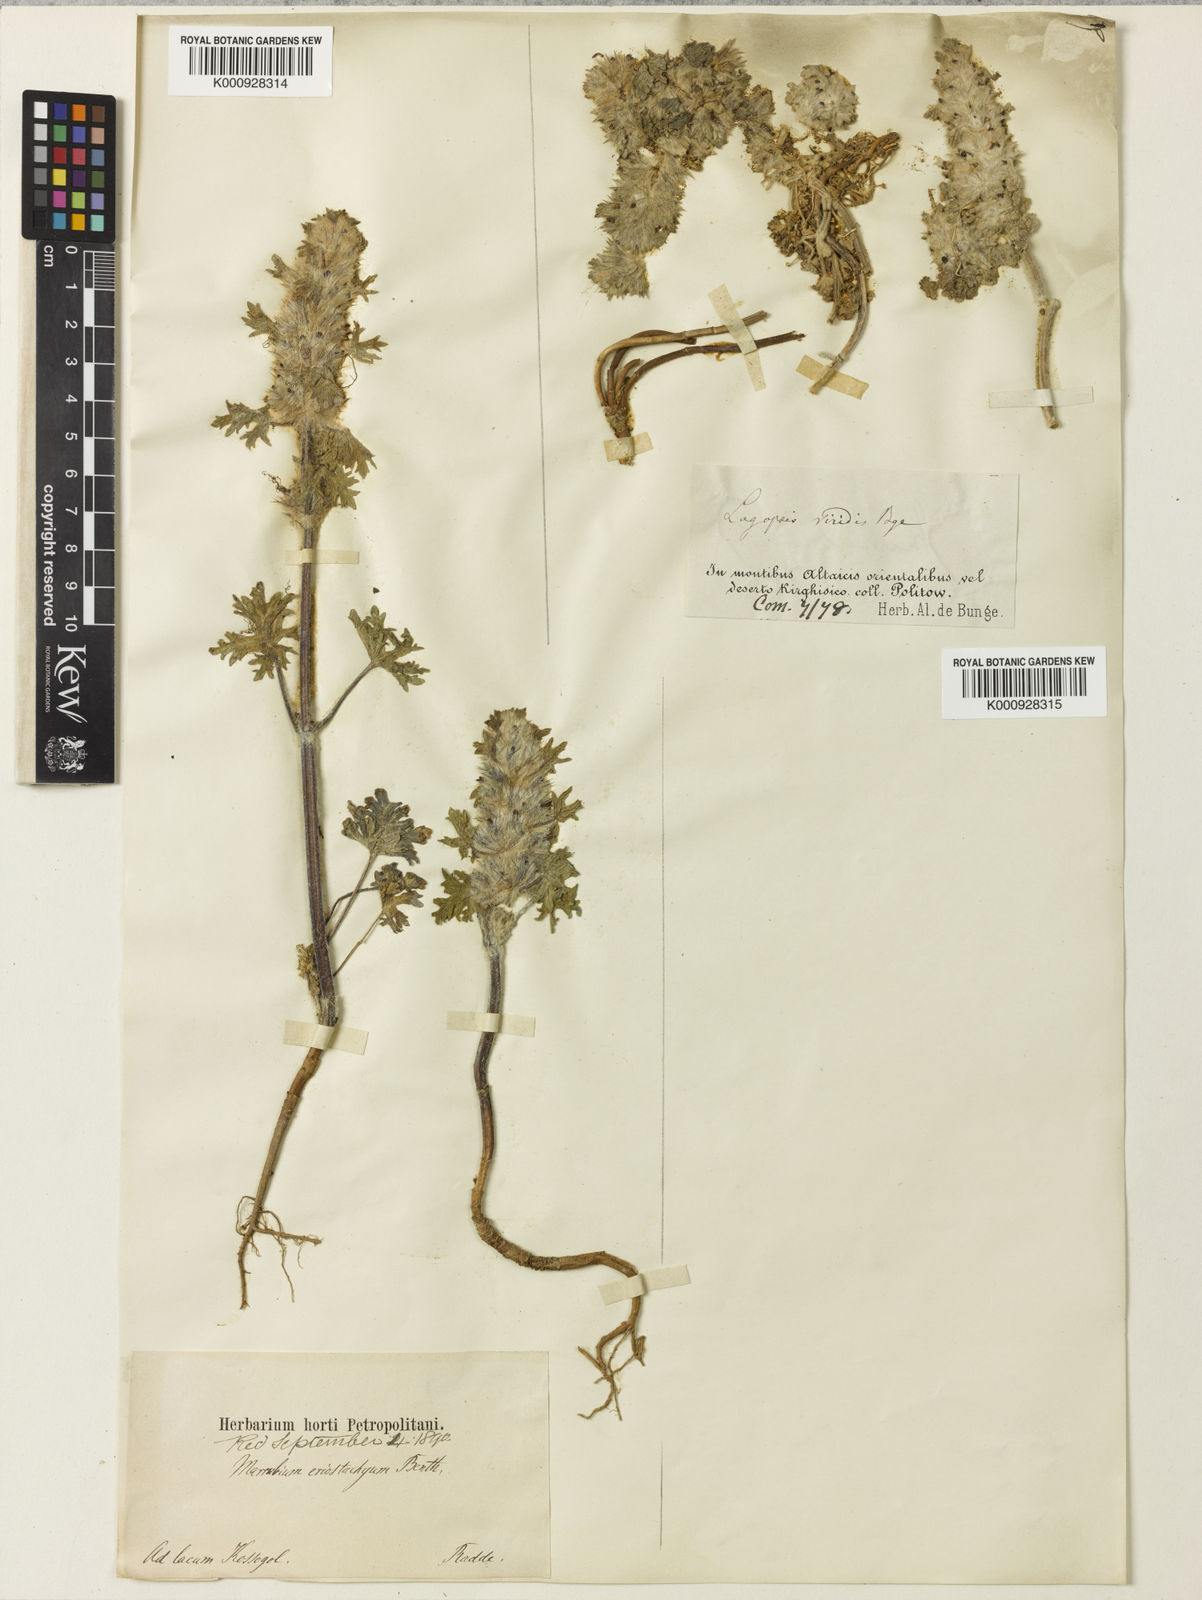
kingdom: Plantae
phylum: Tracheophyta
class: Magnoliopsida
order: Lamiales
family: Lamiaceae
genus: Lagopsis
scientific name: Lagopsis eriostachya
